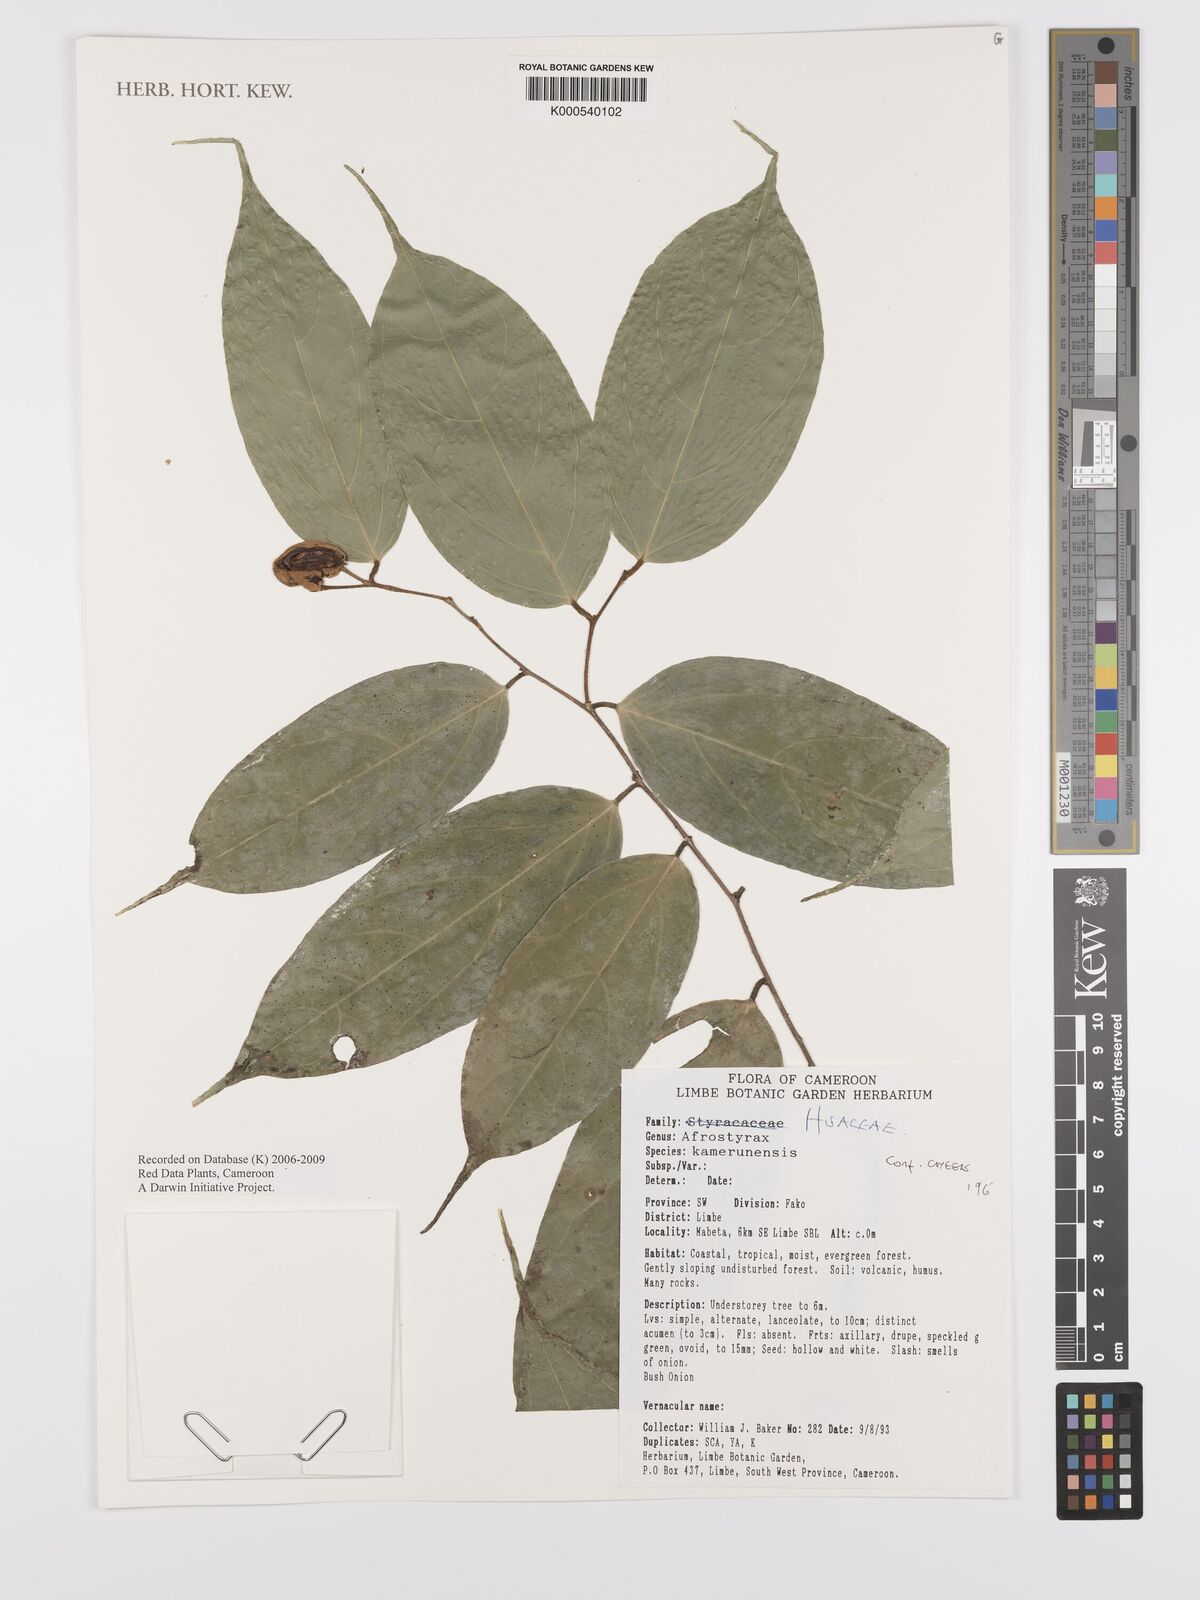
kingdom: Plantae
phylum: Tracheophyta
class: Magnoliopsida
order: Oxalidales
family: Huaceae
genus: Afrostyrax
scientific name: Afrostyrax kamerunensis
